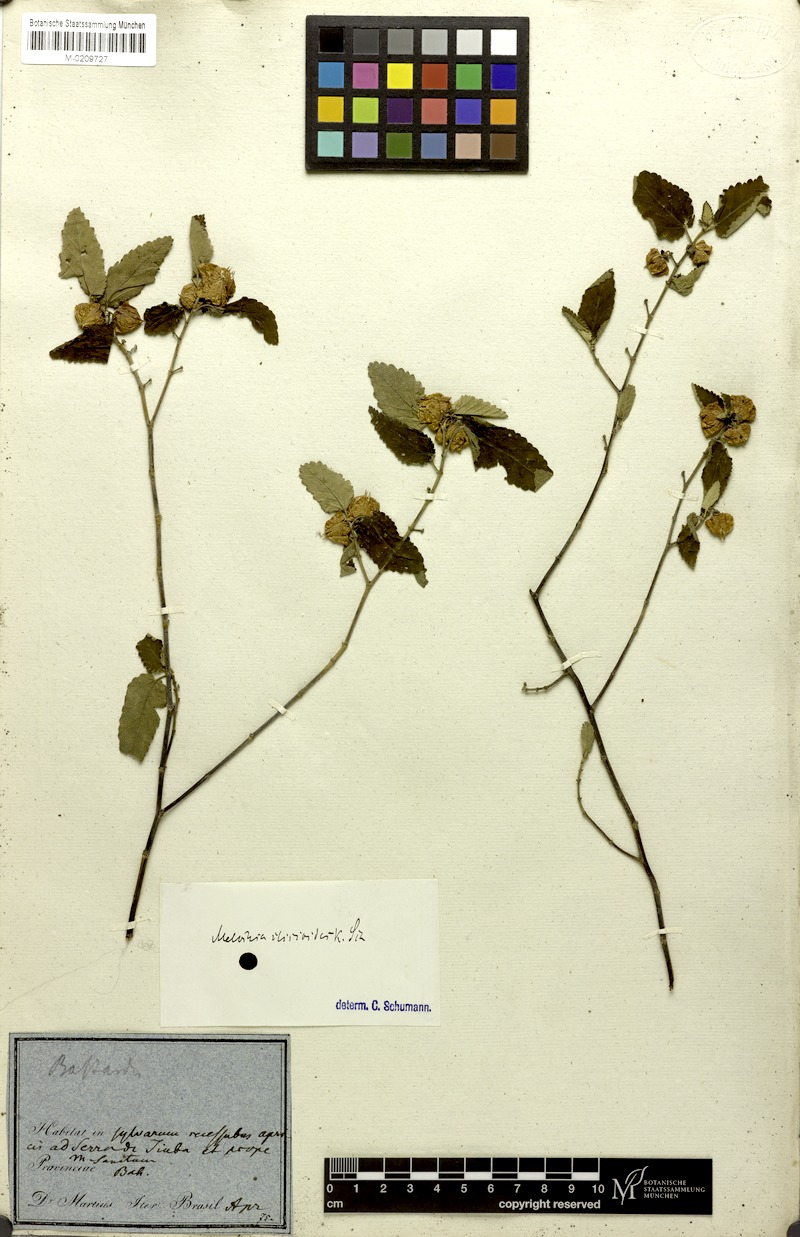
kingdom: Plantae
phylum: Tracheophyta
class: Magnoliopsida
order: Malvales
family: Malvaceae
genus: Melochia
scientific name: Melochia illicioides
